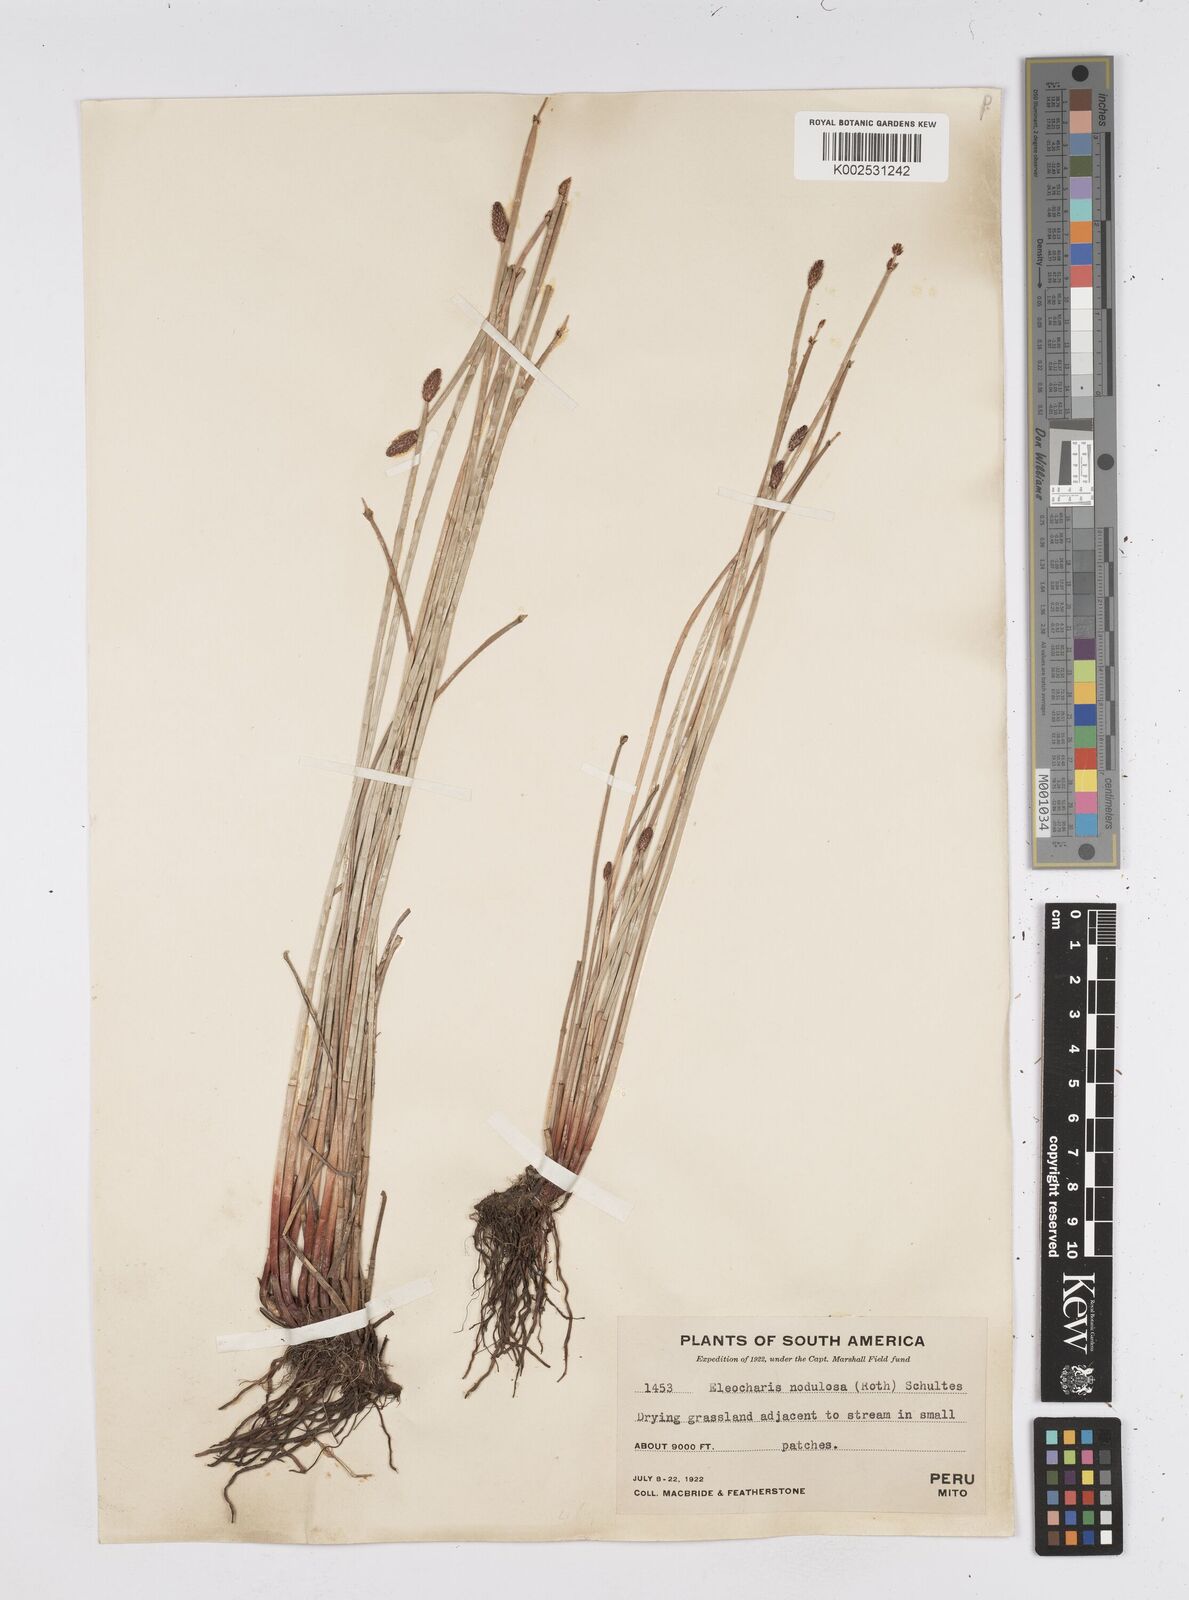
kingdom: Plantae
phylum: Tracheophyta
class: Liliopsida
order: Poales
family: Cyperaceae
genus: Eleocharis
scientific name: Eleocharis montana
